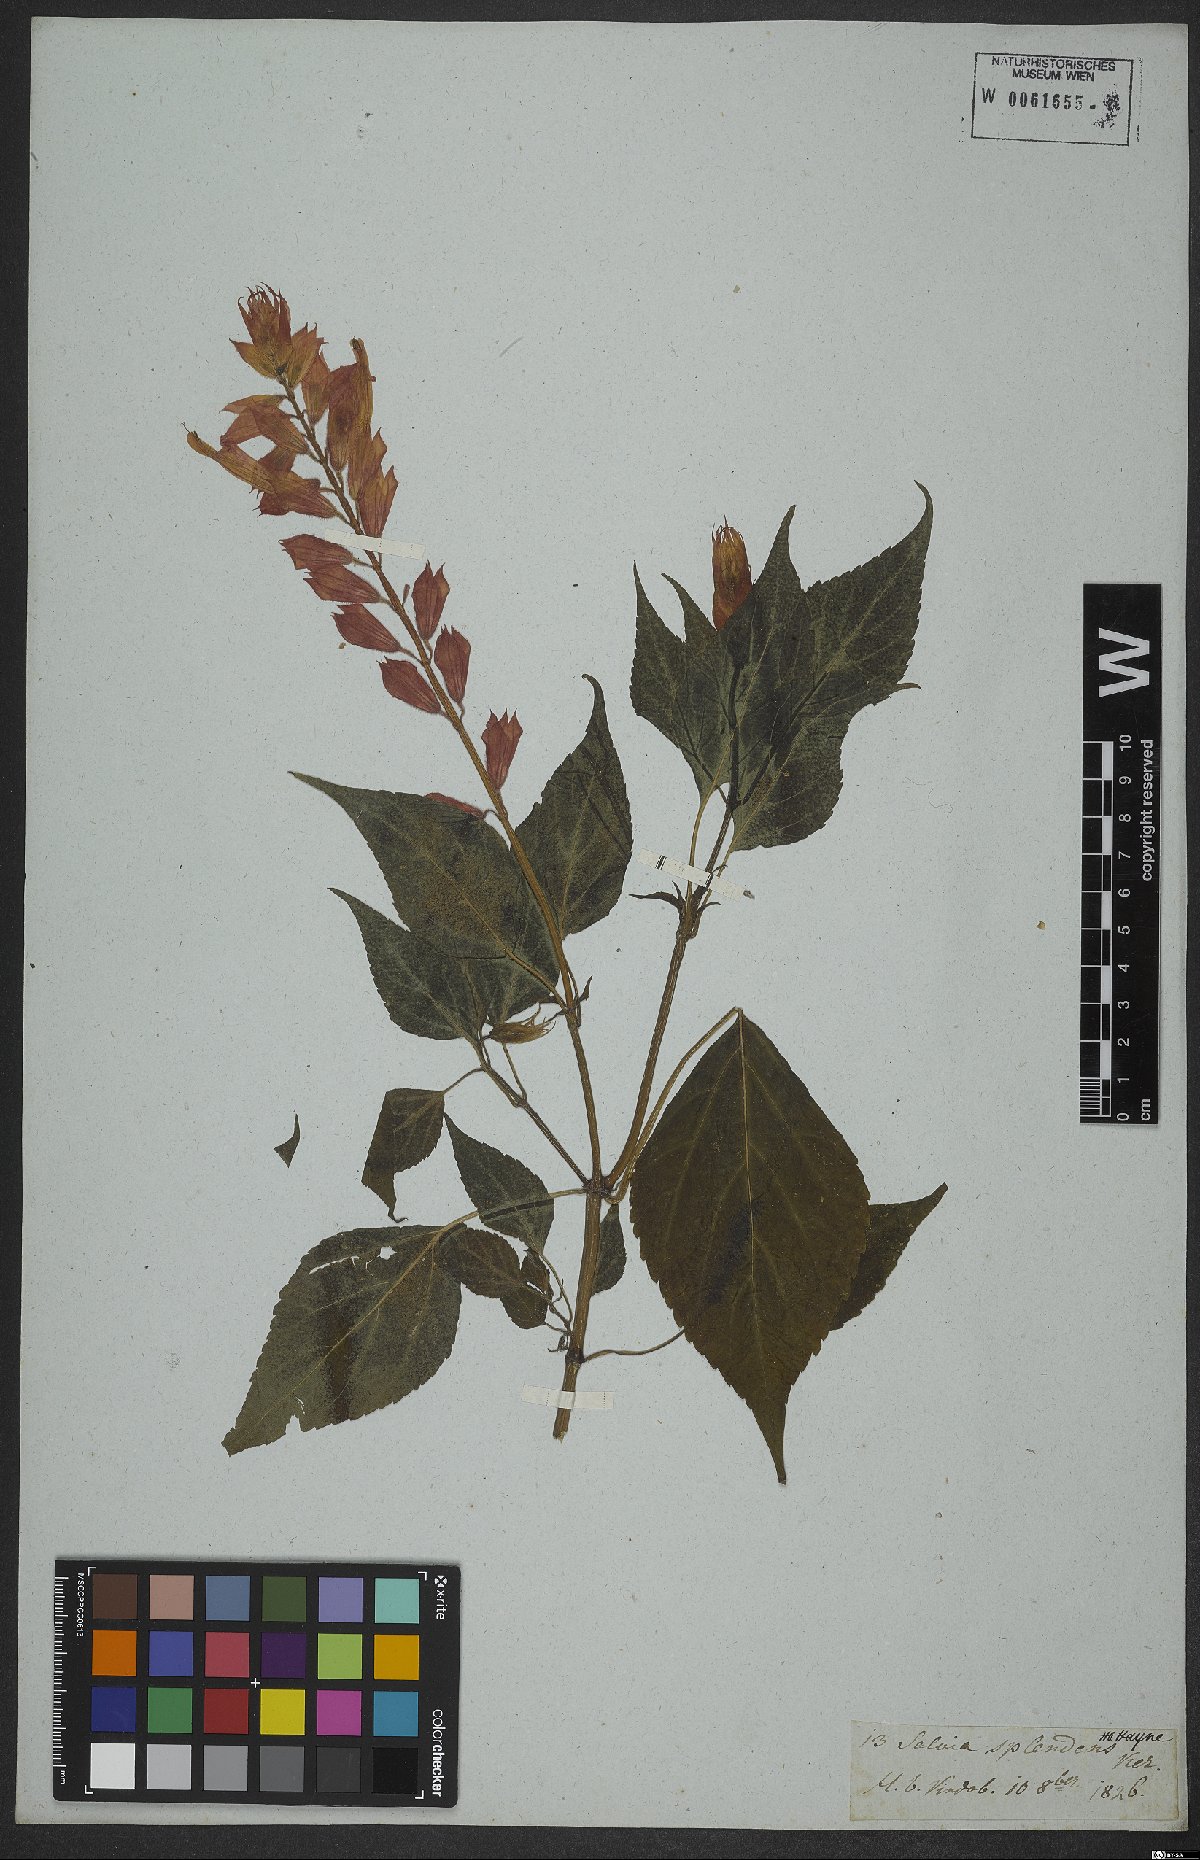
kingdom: Plantae
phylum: Tracheophyta
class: Magnoliopsida
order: Lamiales
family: Lamiaceae
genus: Salvia
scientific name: Salvia splendens
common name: Scarlet sage
